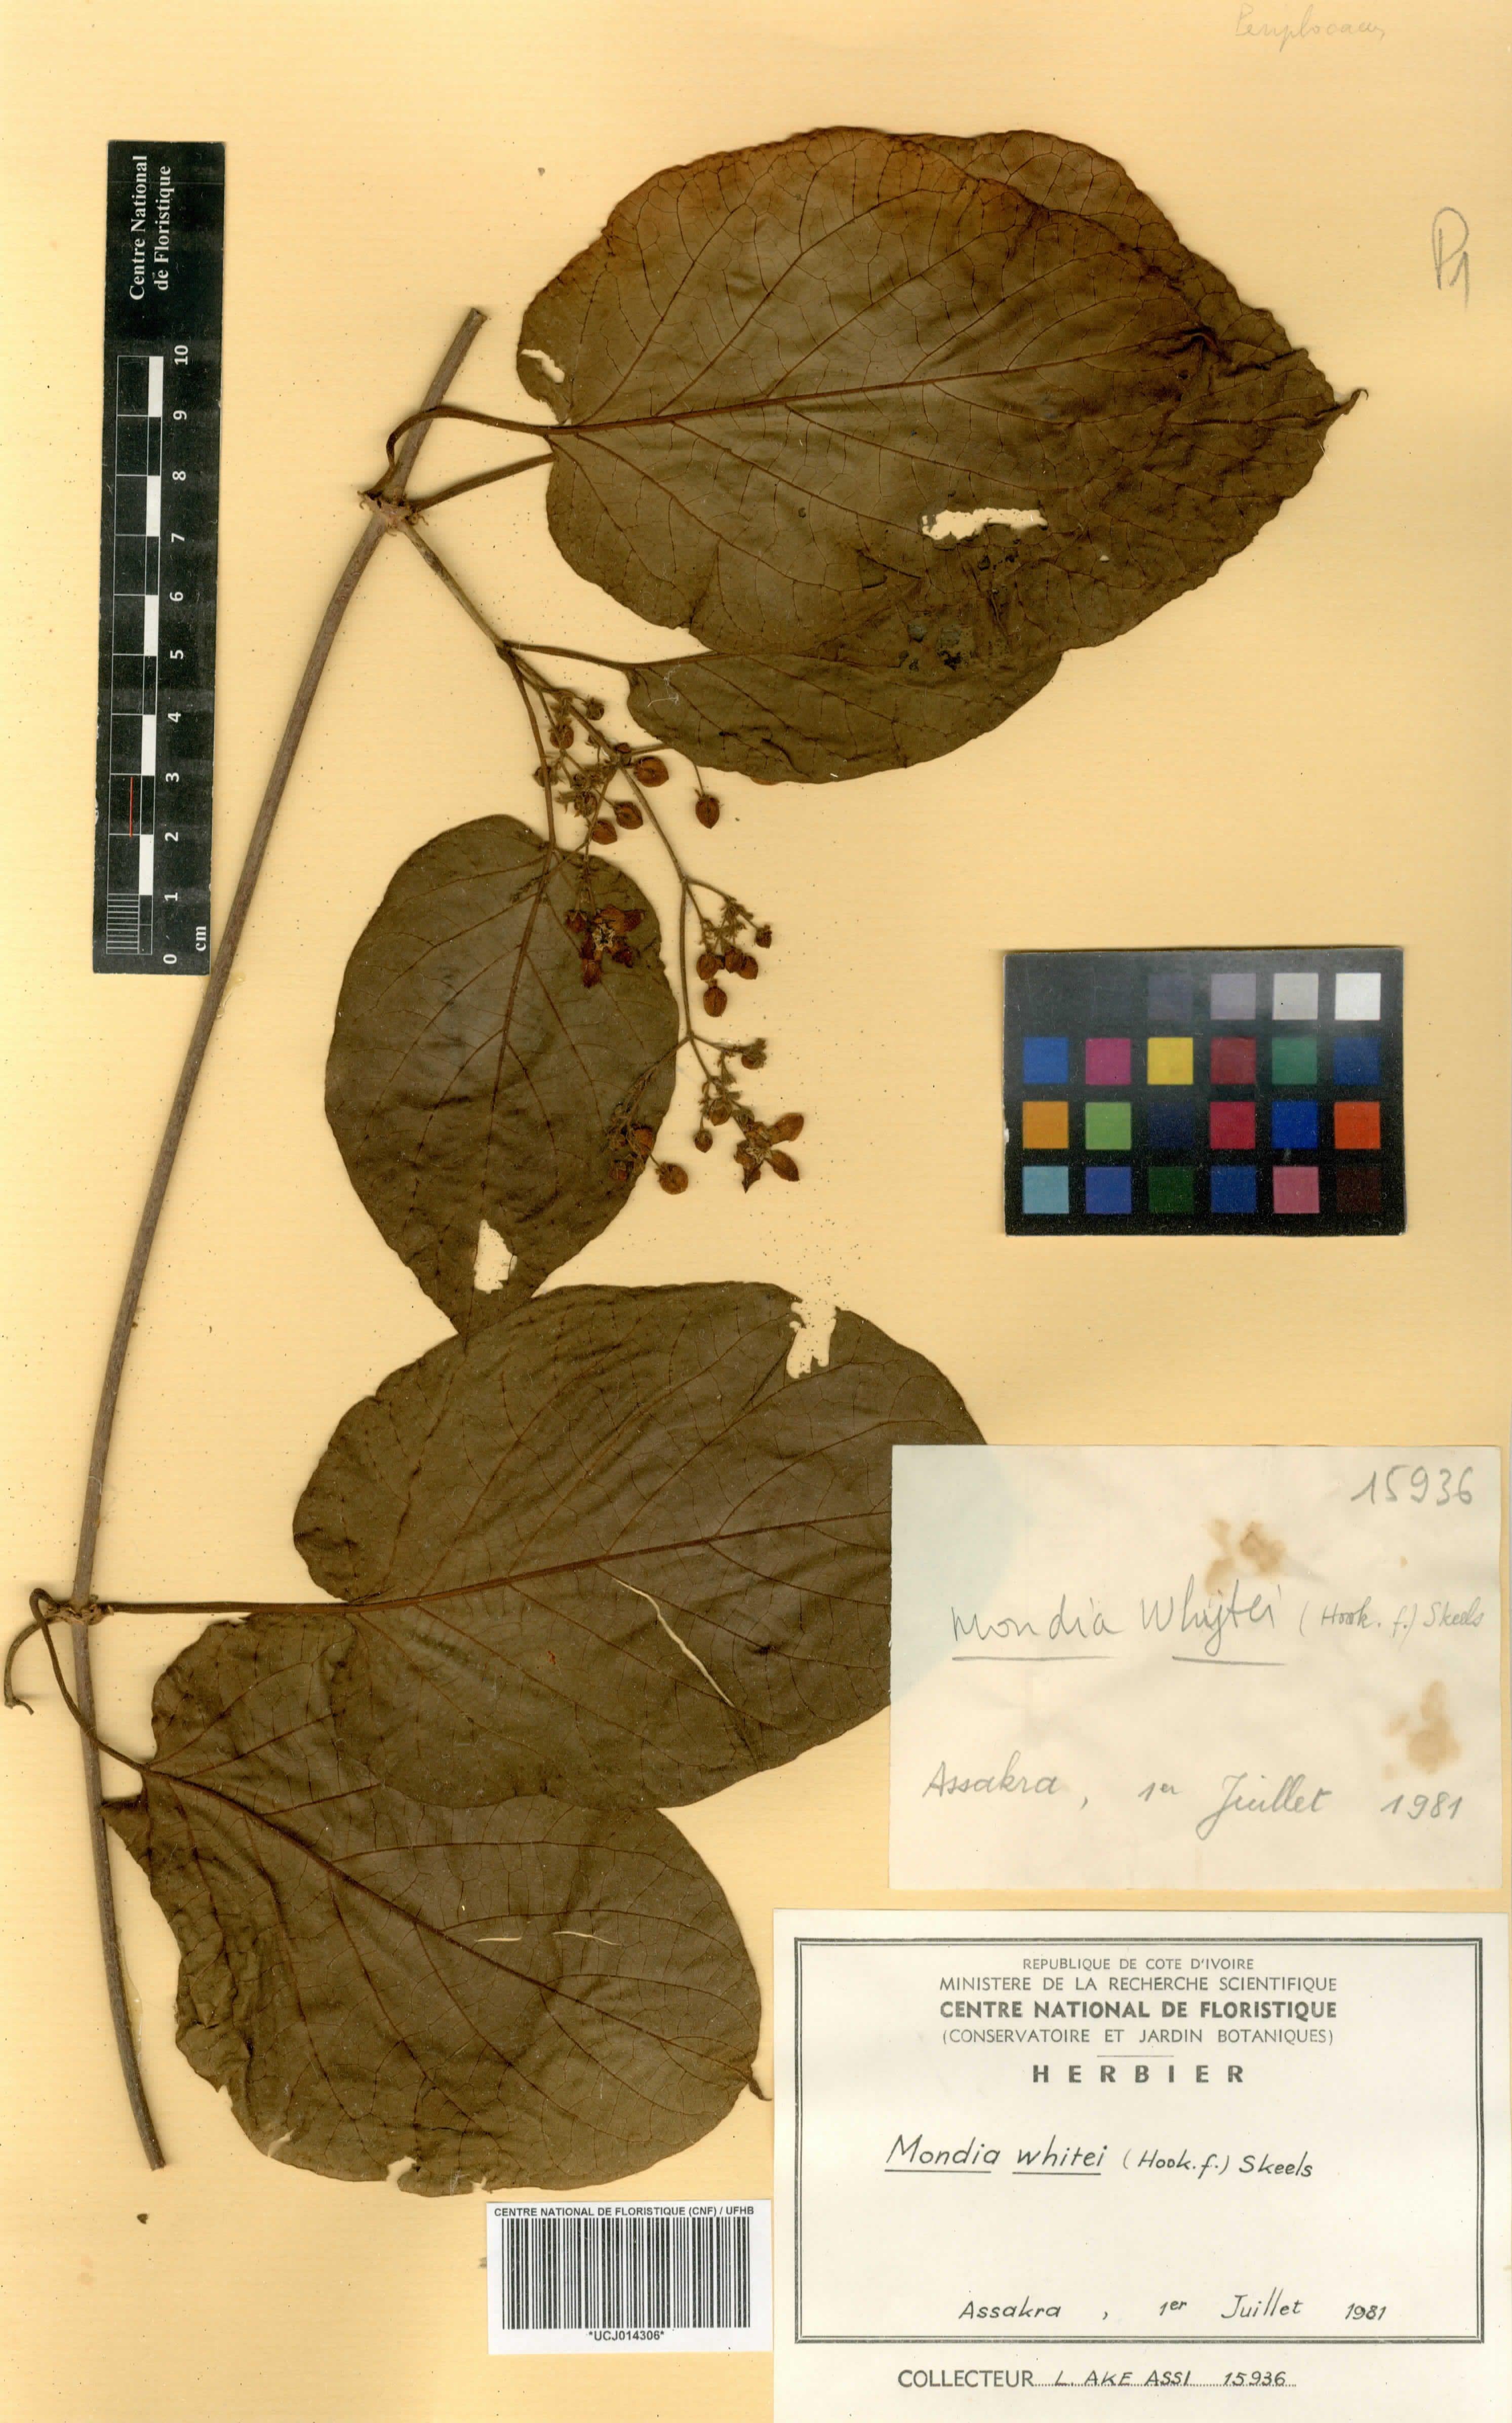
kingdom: Plantae
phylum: Tracheophyta
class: Magnoliopsida
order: Gentianales
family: Apocynaceae
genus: Mondia
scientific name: Mondia whitei
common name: Mondia
